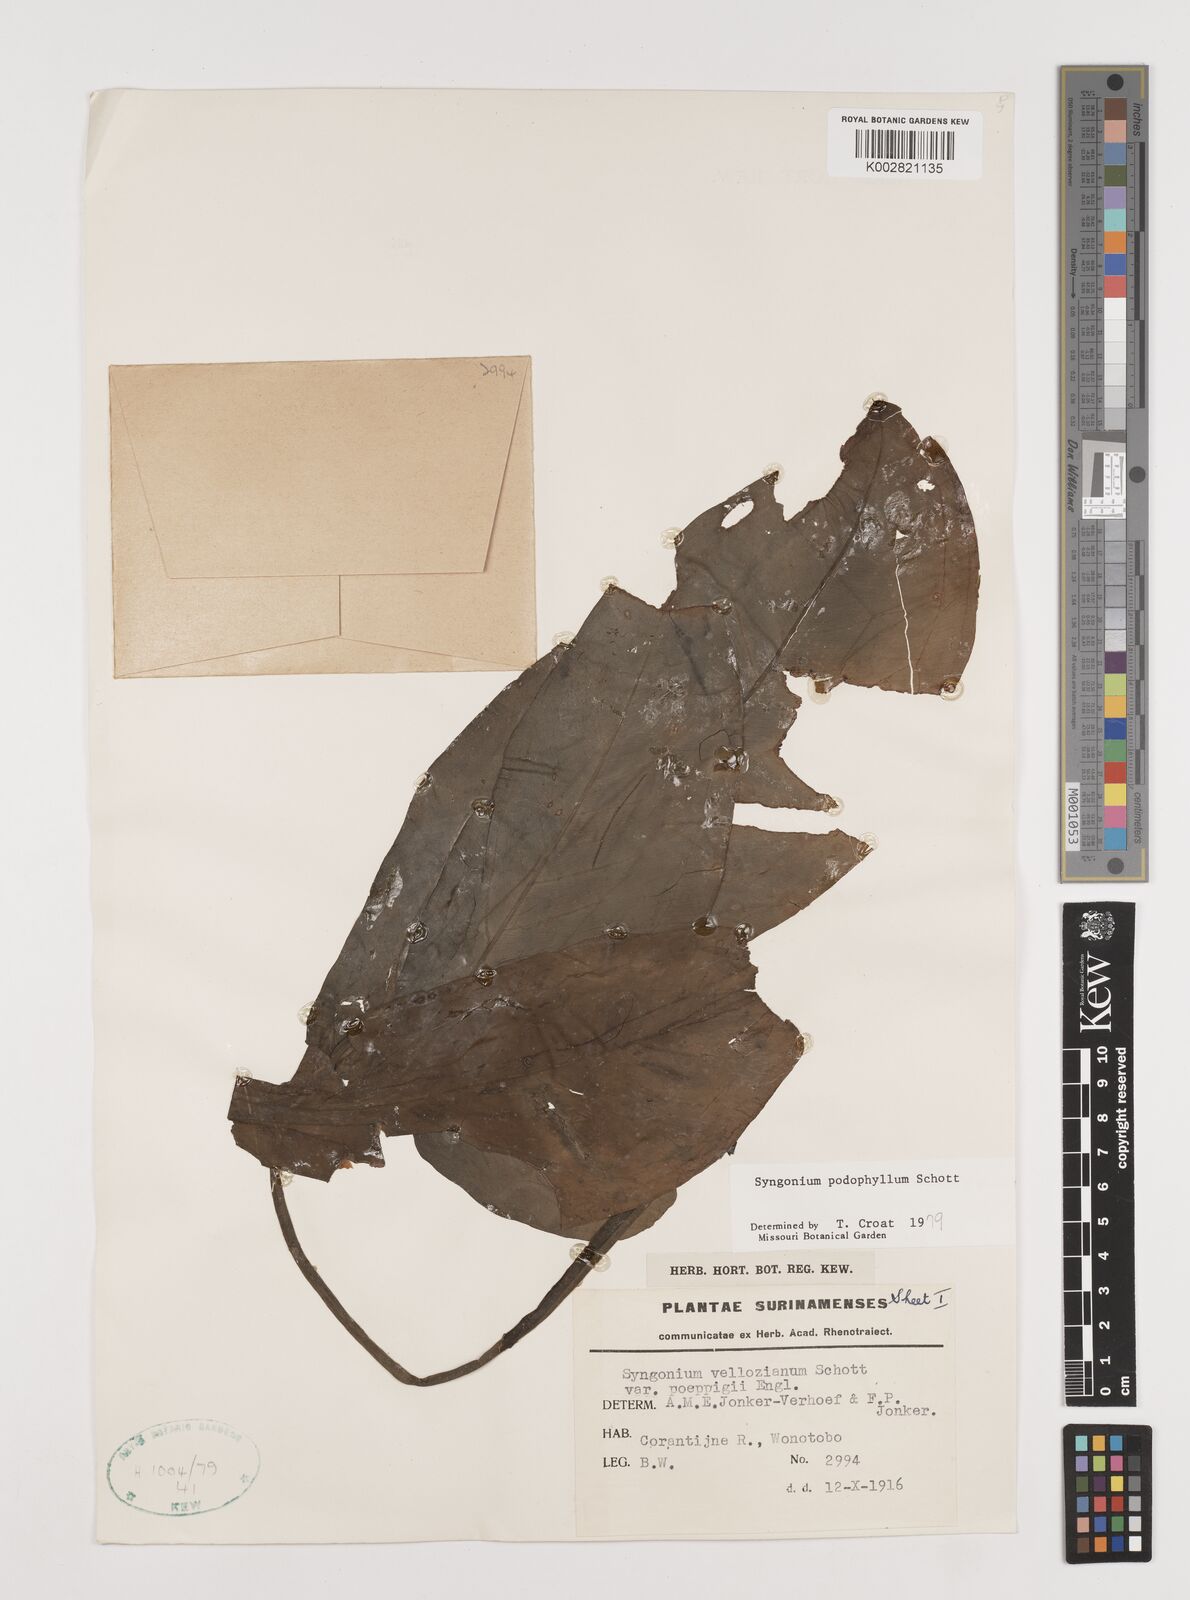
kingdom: Plantae
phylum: Tracheophyta
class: Liliopsida
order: Alismatales
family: Araceae
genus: Syngonium
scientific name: Syngonium podophyllum
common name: American evergreen
